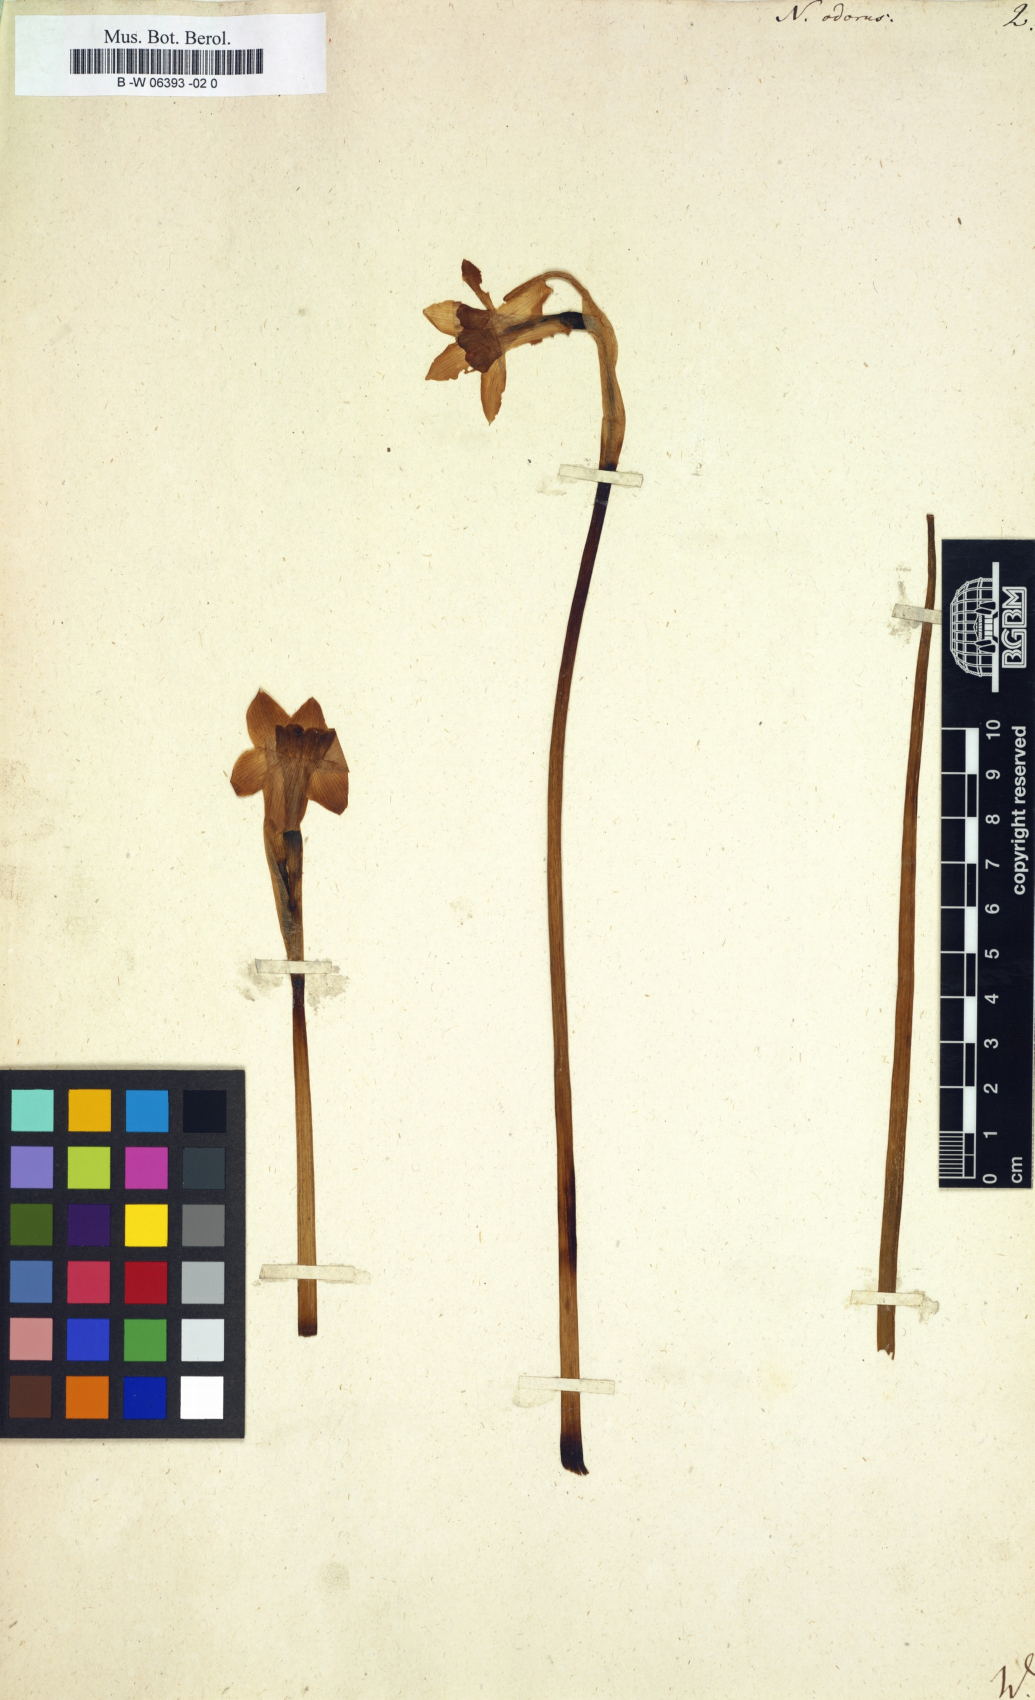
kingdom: Plantae
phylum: Tracheophyta
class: Liliopsida
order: Asparagales
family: Amaryllidaceae
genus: Narcissus
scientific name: Narcissus odorus
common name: Campernelle jonquil
